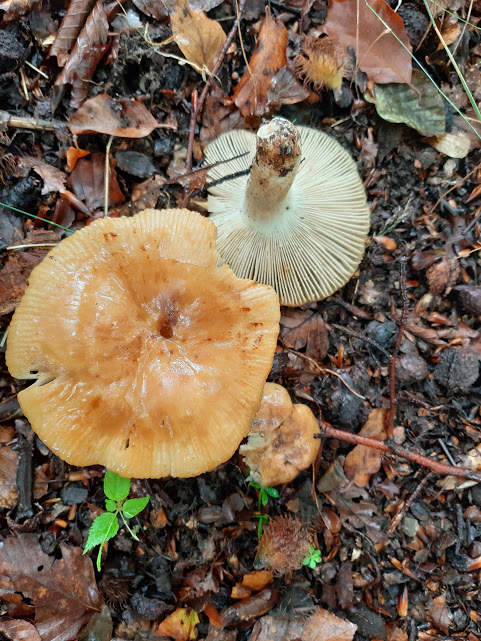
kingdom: Fungi
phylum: Basidiomycota
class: Agaricomycetes
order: Russulales
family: Russulaceae
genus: Russula
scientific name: Russula grata
